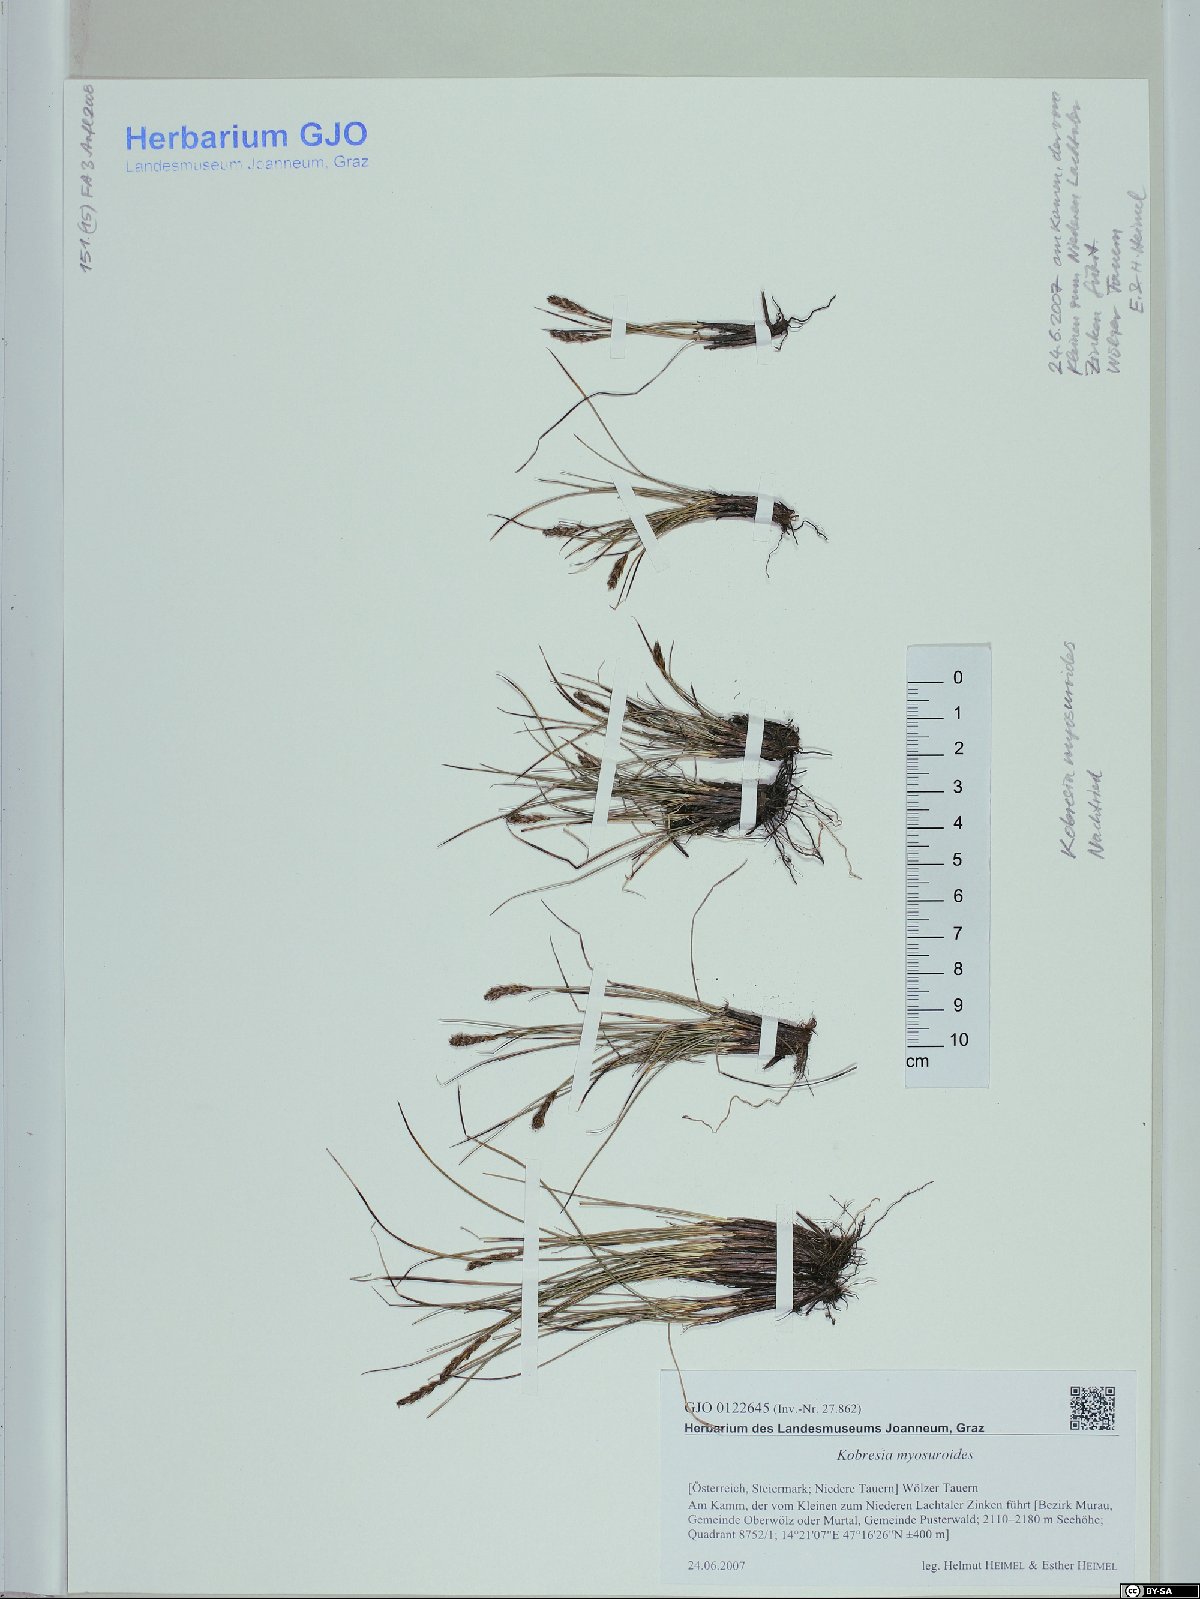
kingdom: Plantae
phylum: Tracheophyta
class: Liliopsida
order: Poales
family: Cyperaceae
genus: Carex
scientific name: Carex myosuroides
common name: Bellard's bog sedge
